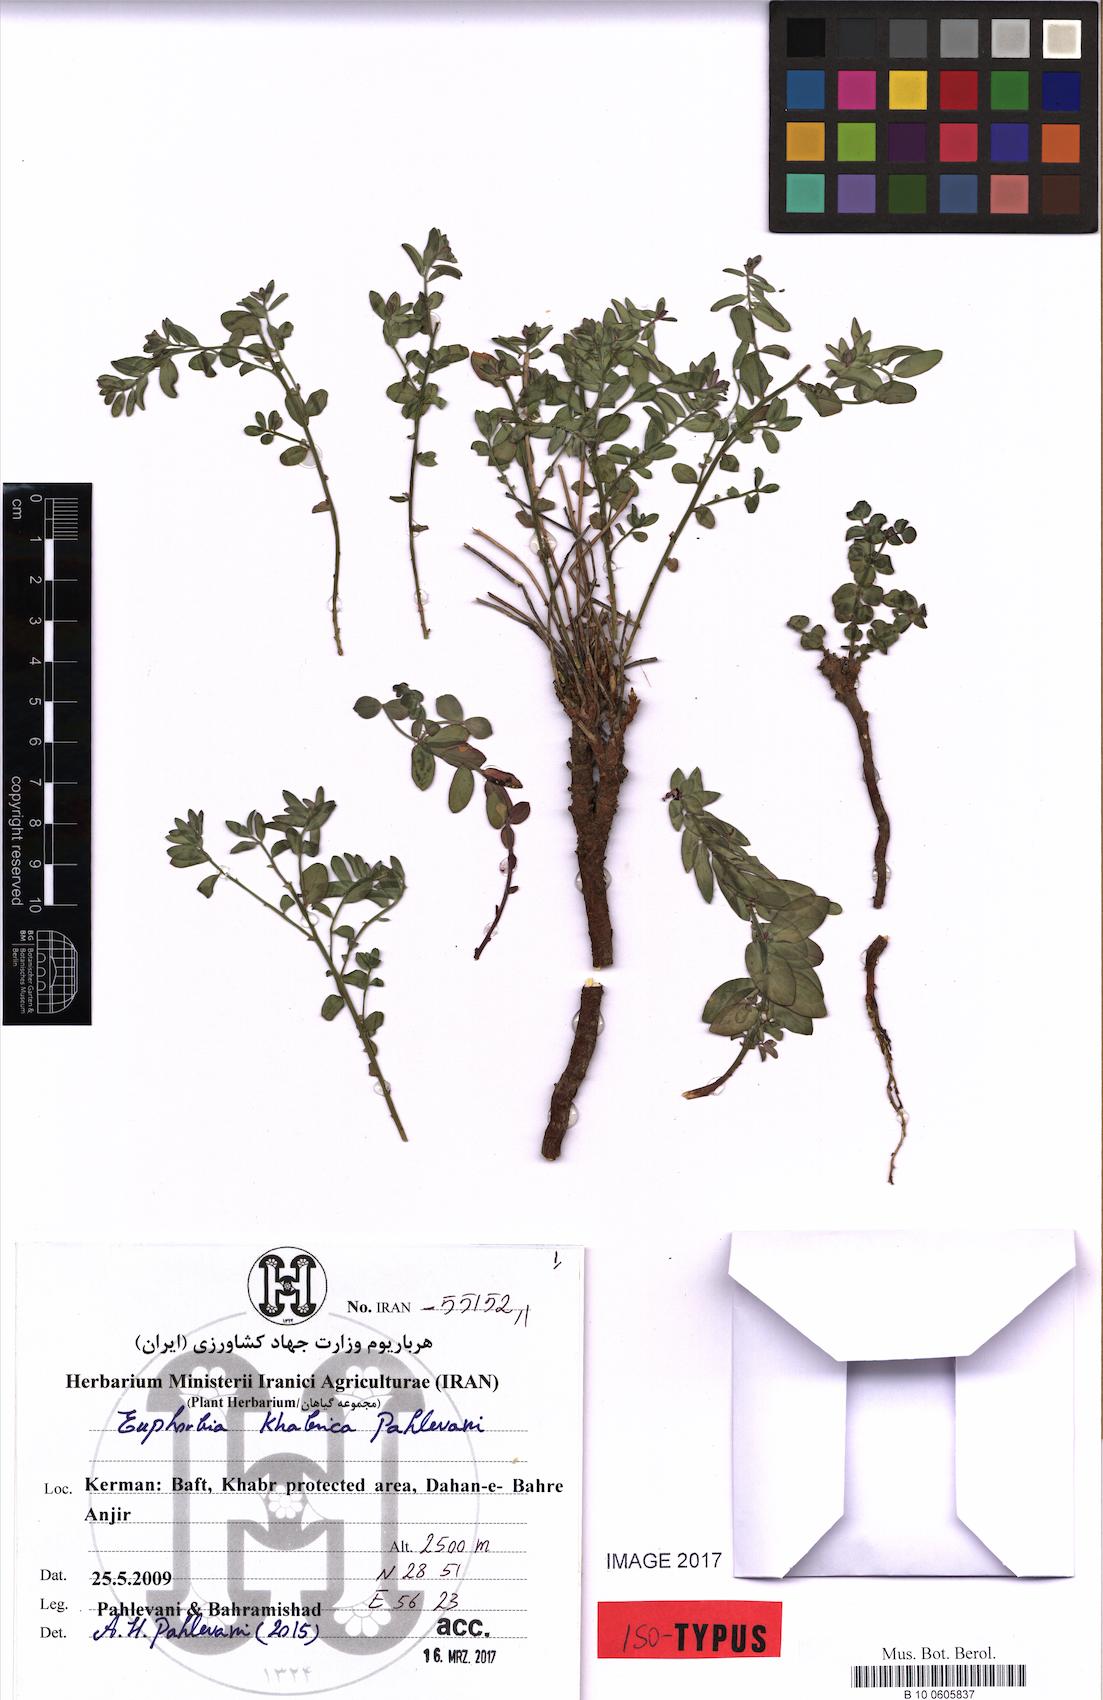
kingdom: Plantae
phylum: Tracheophyta
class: Magnoliopsida
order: Malpighiales
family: Euphorbiaceae
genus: Euphorbia
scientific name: Euphorbia khabrica
